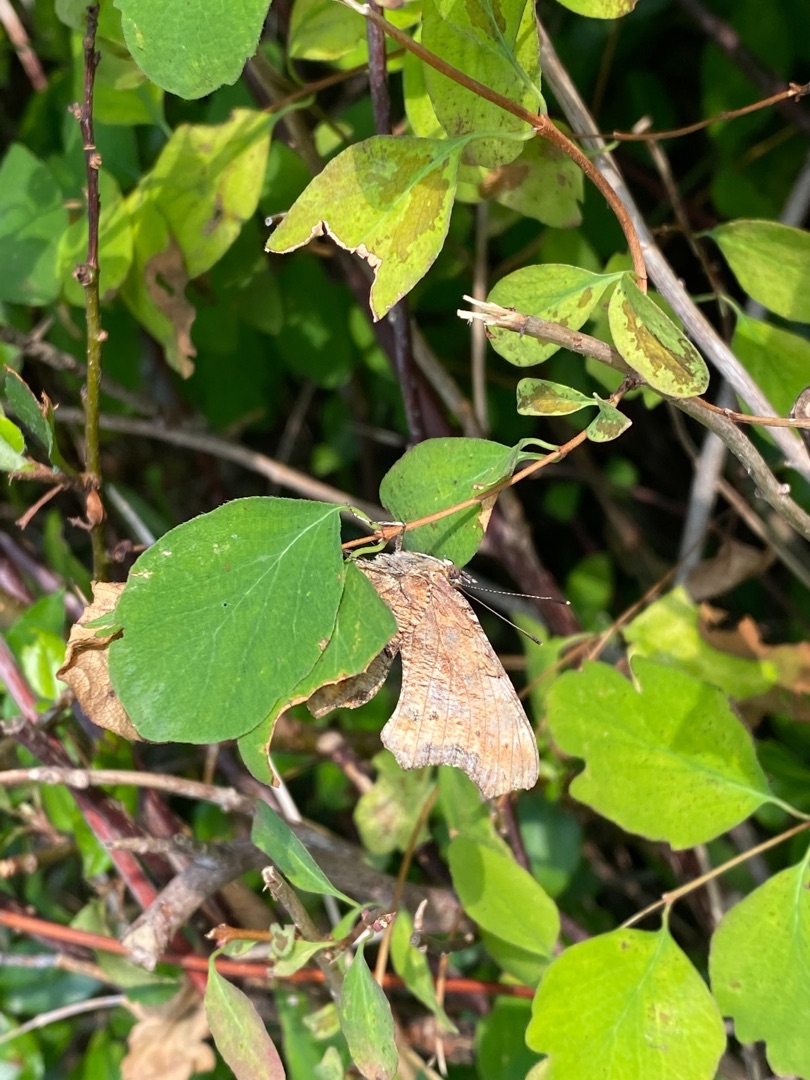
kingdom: Animalia
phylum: Arthropoda
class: Insecta
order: Lepidoptera
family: Nymphalidae
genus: Polygonia
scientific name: Polygonia c-album
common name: Det hvide C
